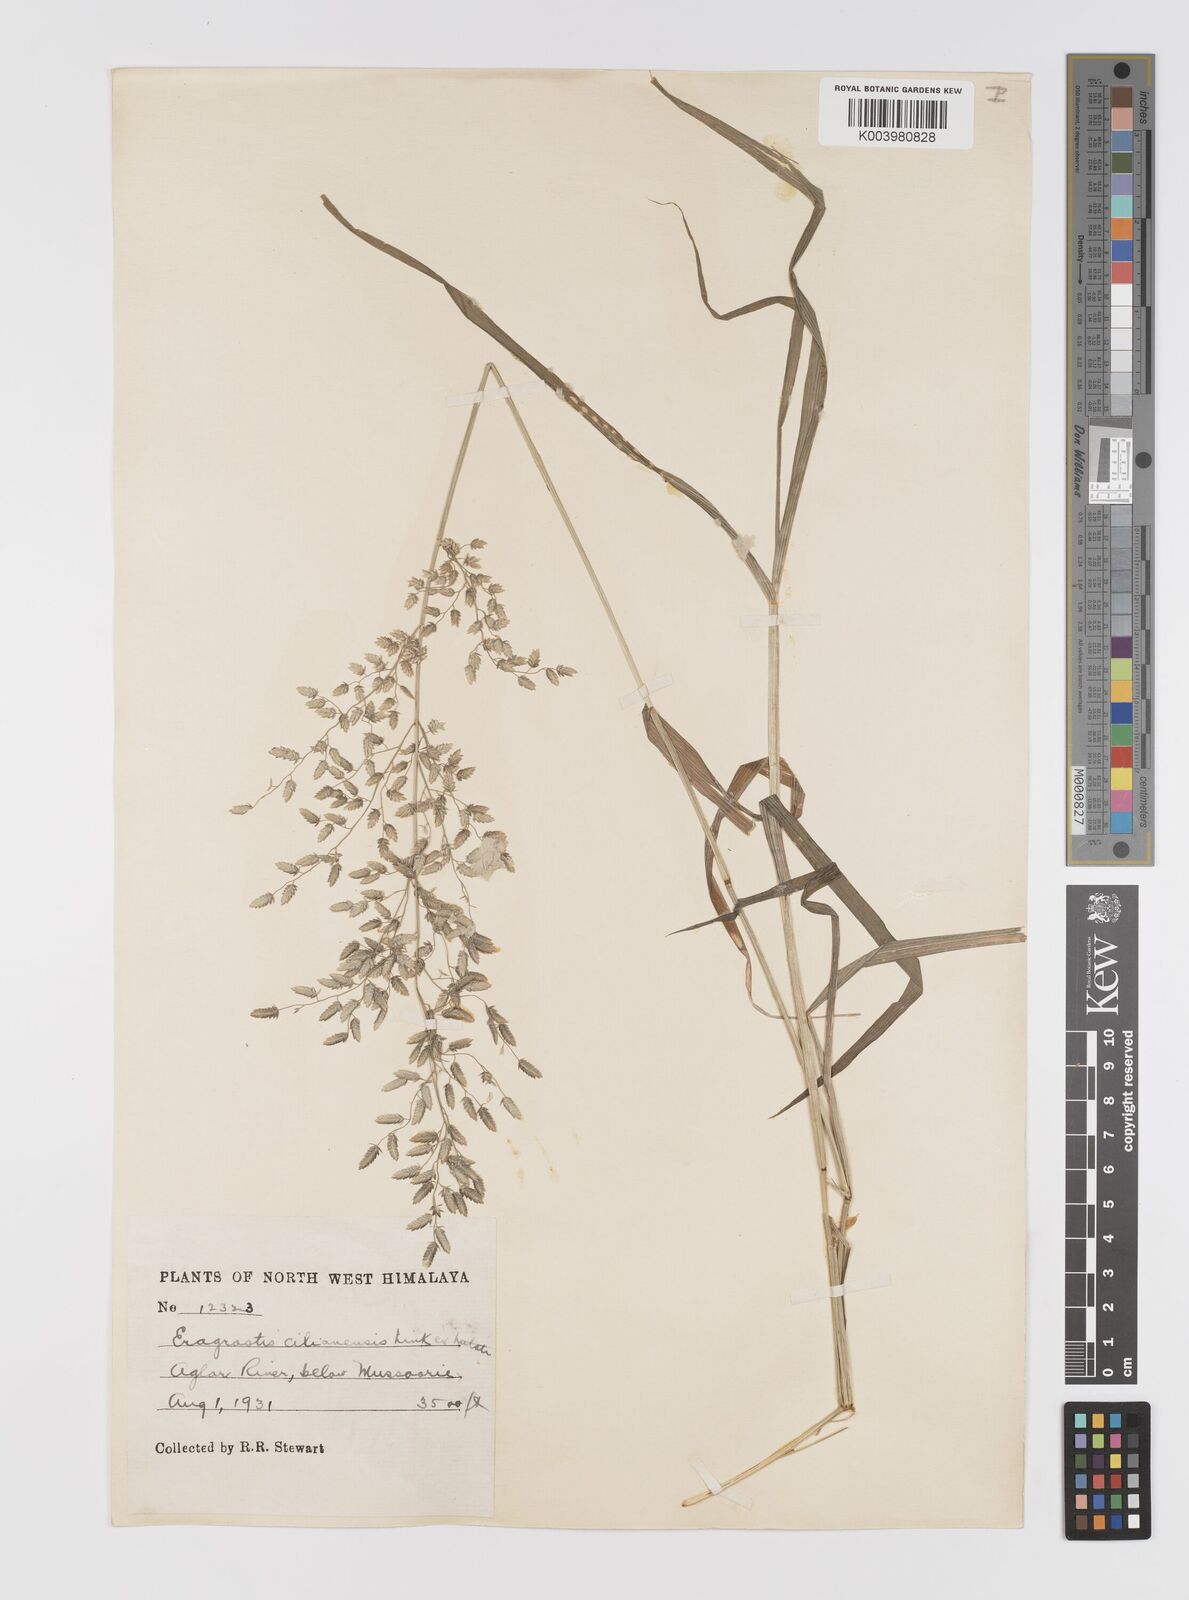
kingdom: Plantae
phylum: Tracheophyta
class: Liliopsida
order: Poales
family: Poaceae
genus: Eragrostis
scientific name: Eragrostis cilianensis
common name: Stinkgrass
